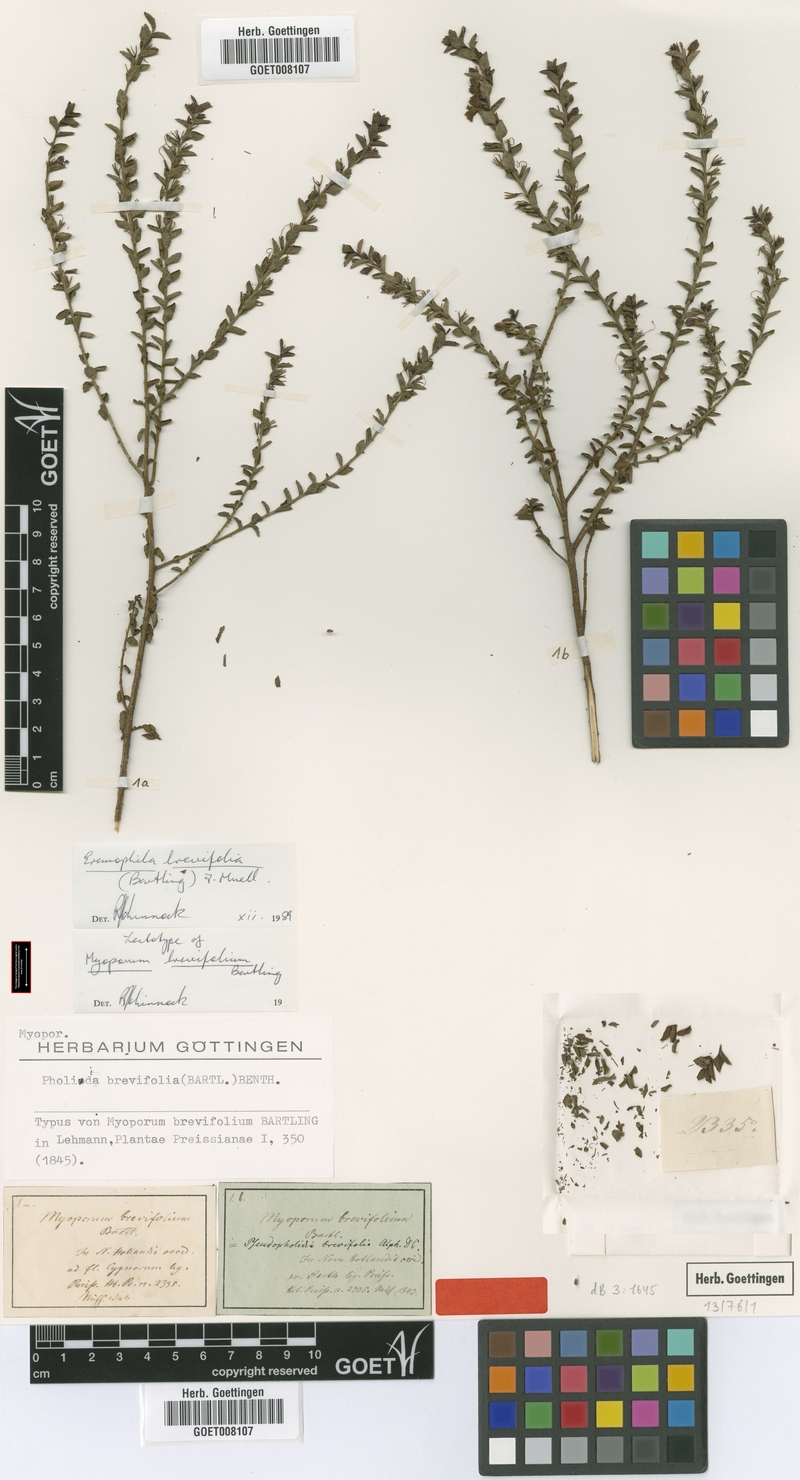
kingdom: Plantae
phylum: Tracheophyta
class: Magnoliopsida
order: Lamiales
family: Scrophulariaceae
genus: Eremophila
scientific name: Eremophila brevifolia
